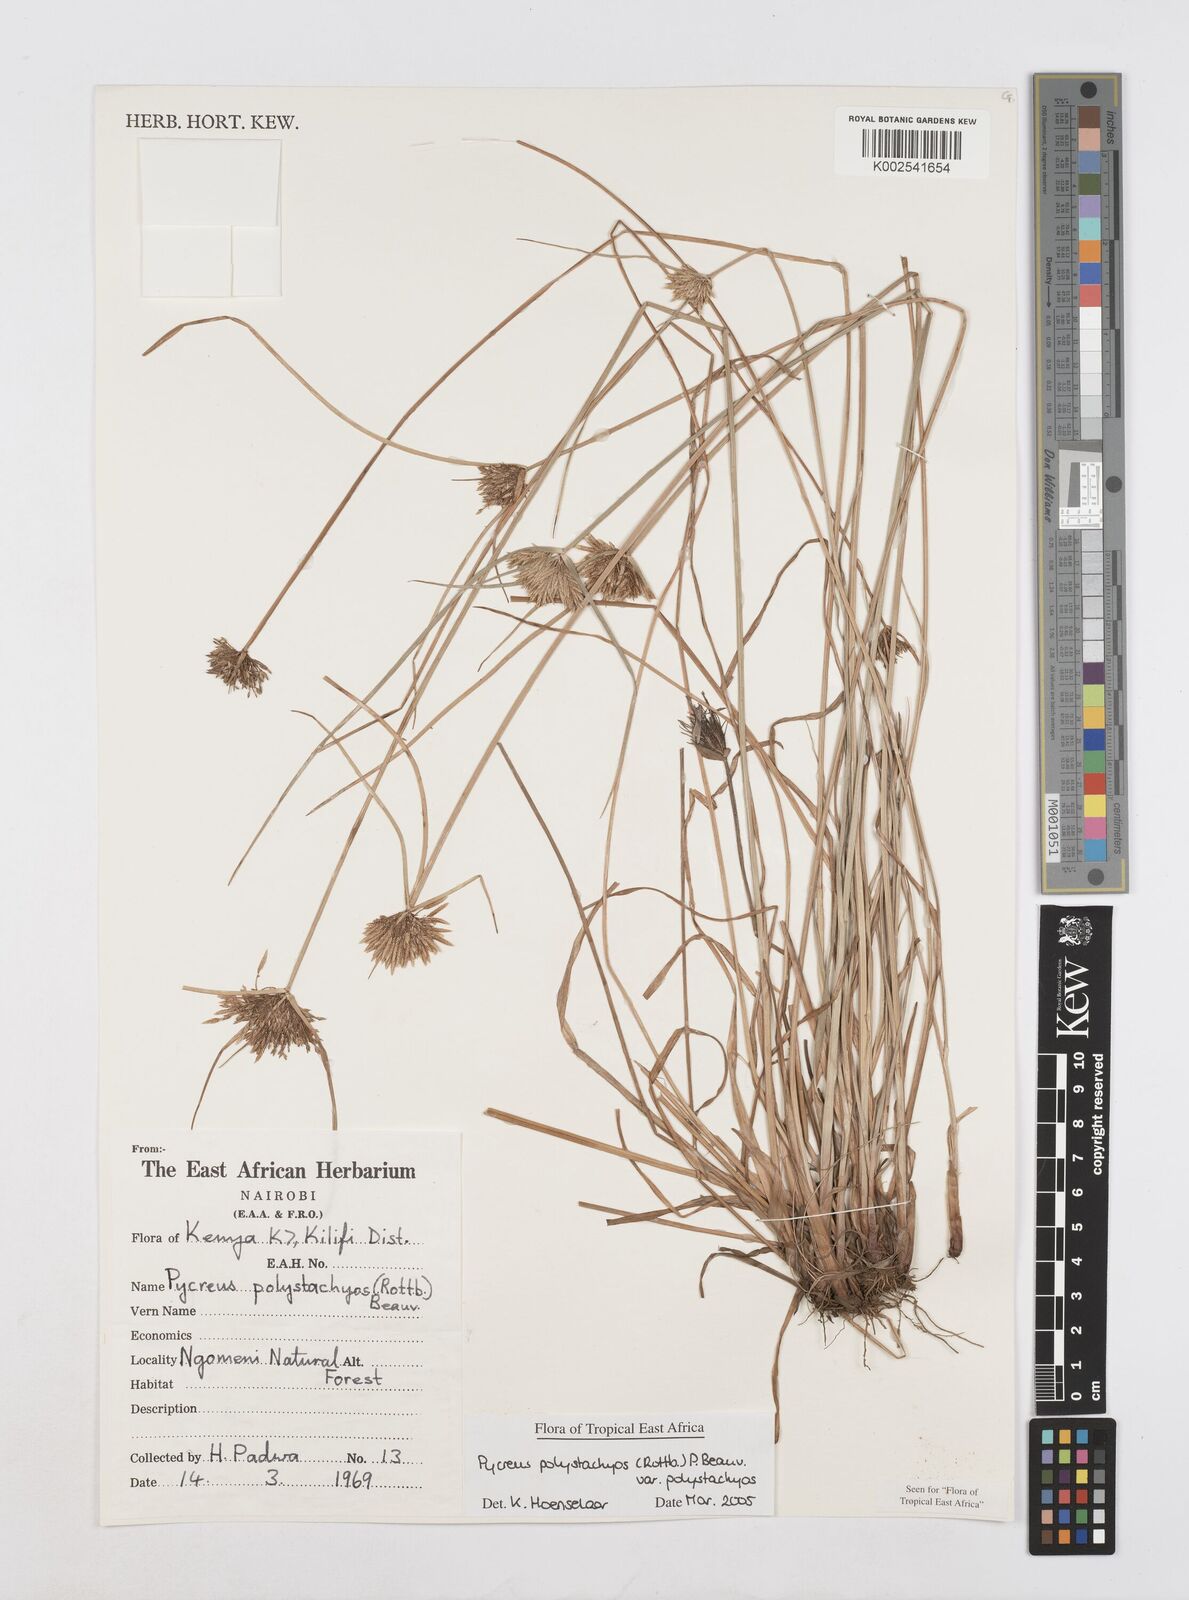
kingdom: Plantae
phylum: Tracheophyta
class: Liliopsida
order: Poales
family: Cyperaceae
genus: Cyperus
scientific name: Cyperus polystachyos
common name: Bunchy flat sedge
